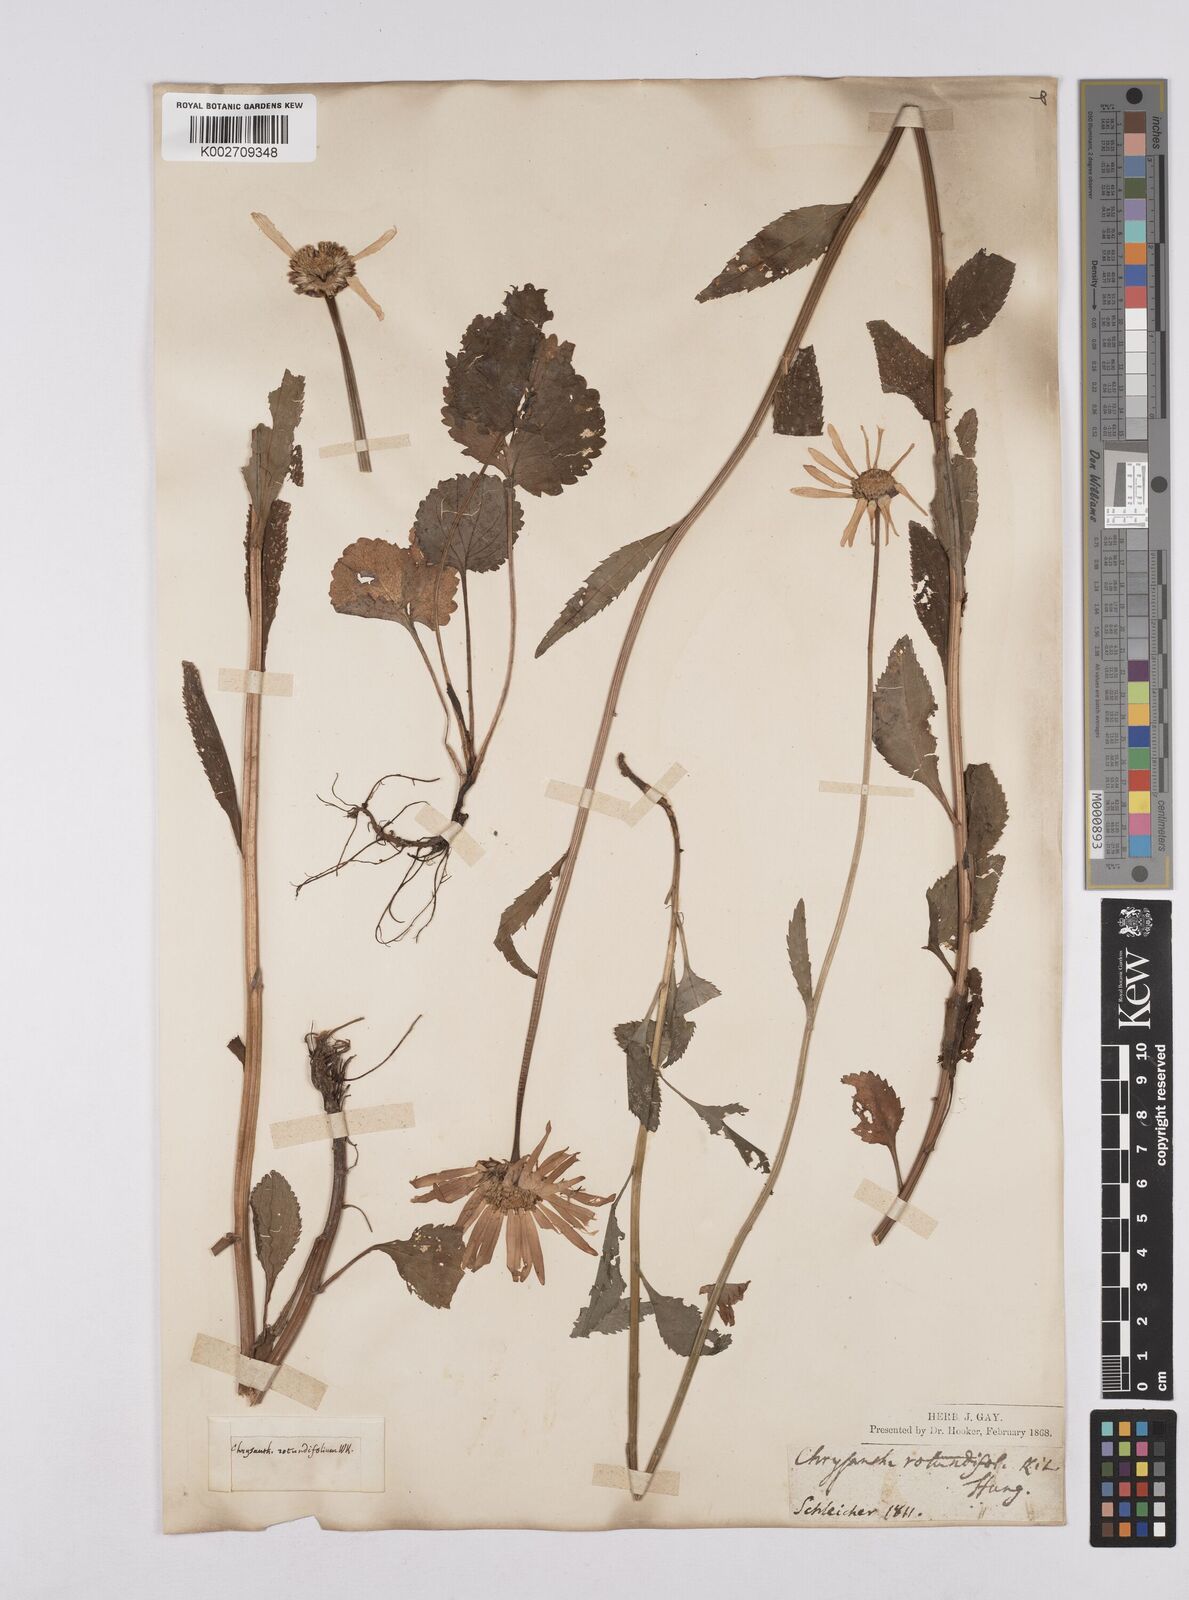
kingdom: Plantae
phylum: Tracheophyta
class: Magnoliopsida
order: Asterales
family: Asteraceae
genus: Leucanthemum
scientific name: Leucanthemum rotundifolium
